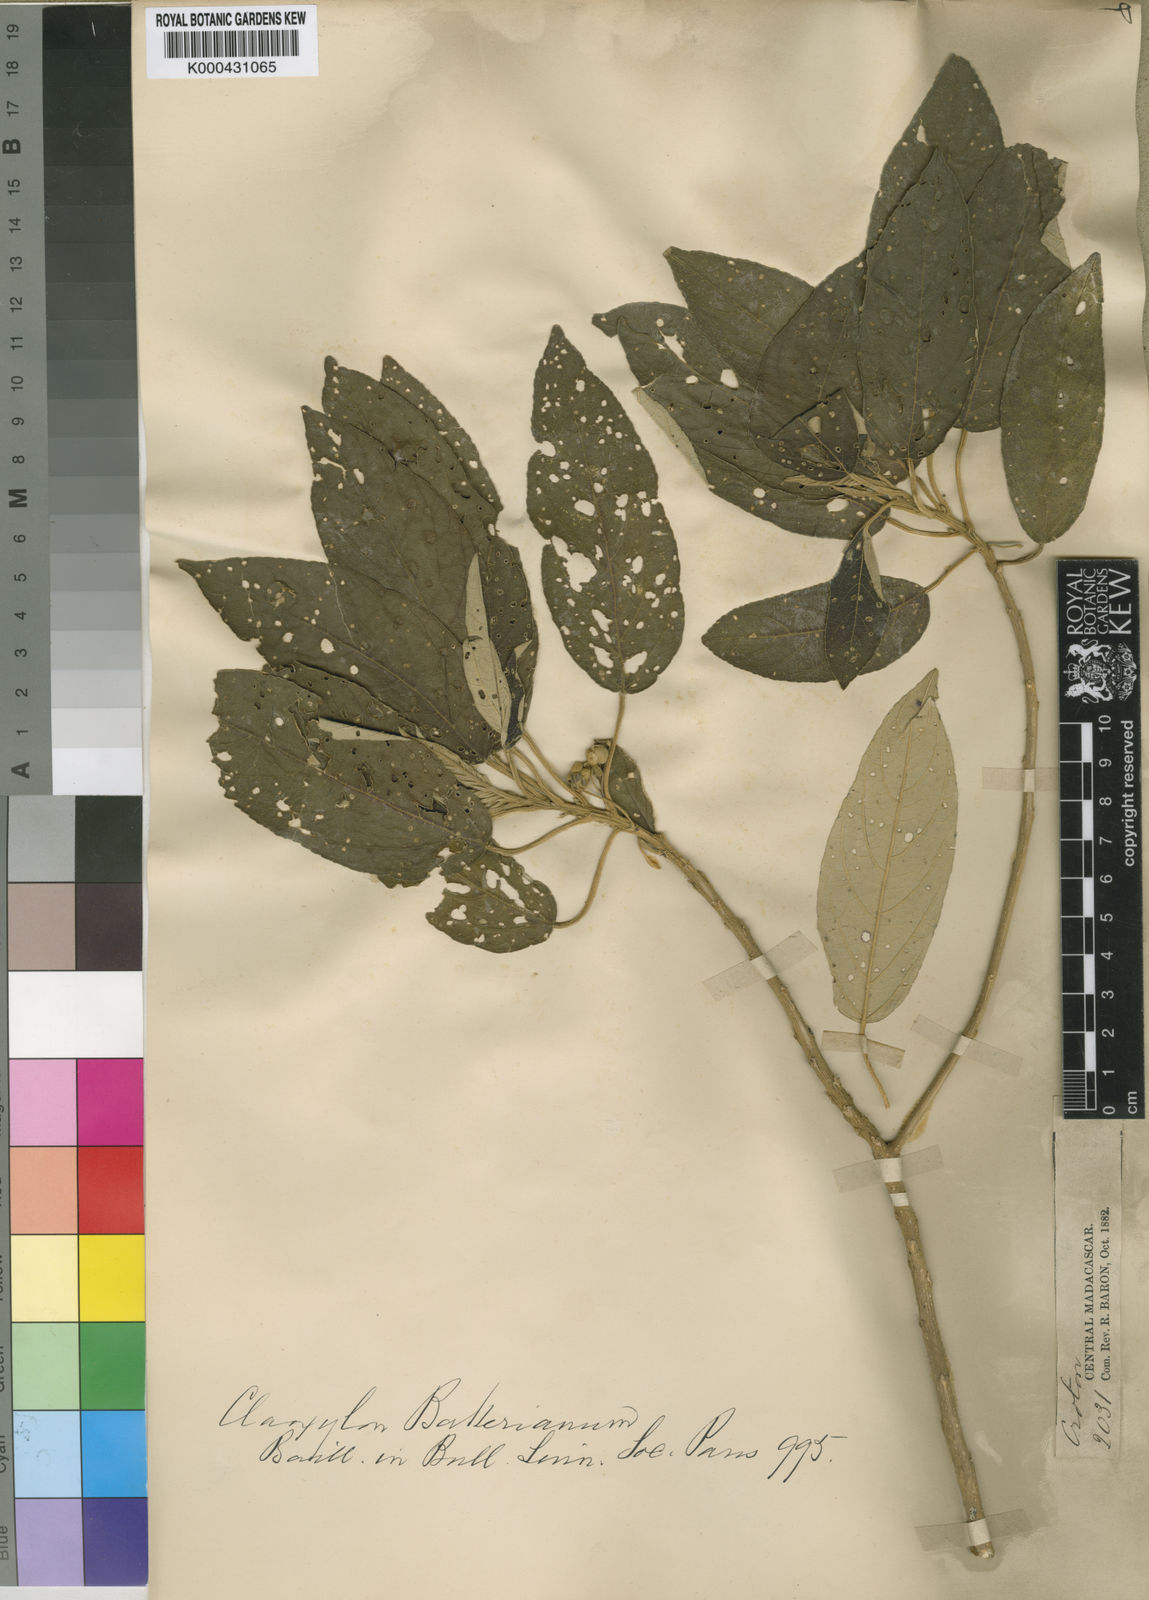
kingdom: Plantae
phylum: Tracheophyta
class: Magnoliopsida
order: Malpighiales
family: Euphorbiaceae
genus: Lobanilia
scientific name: Lobanilia bakeriana
